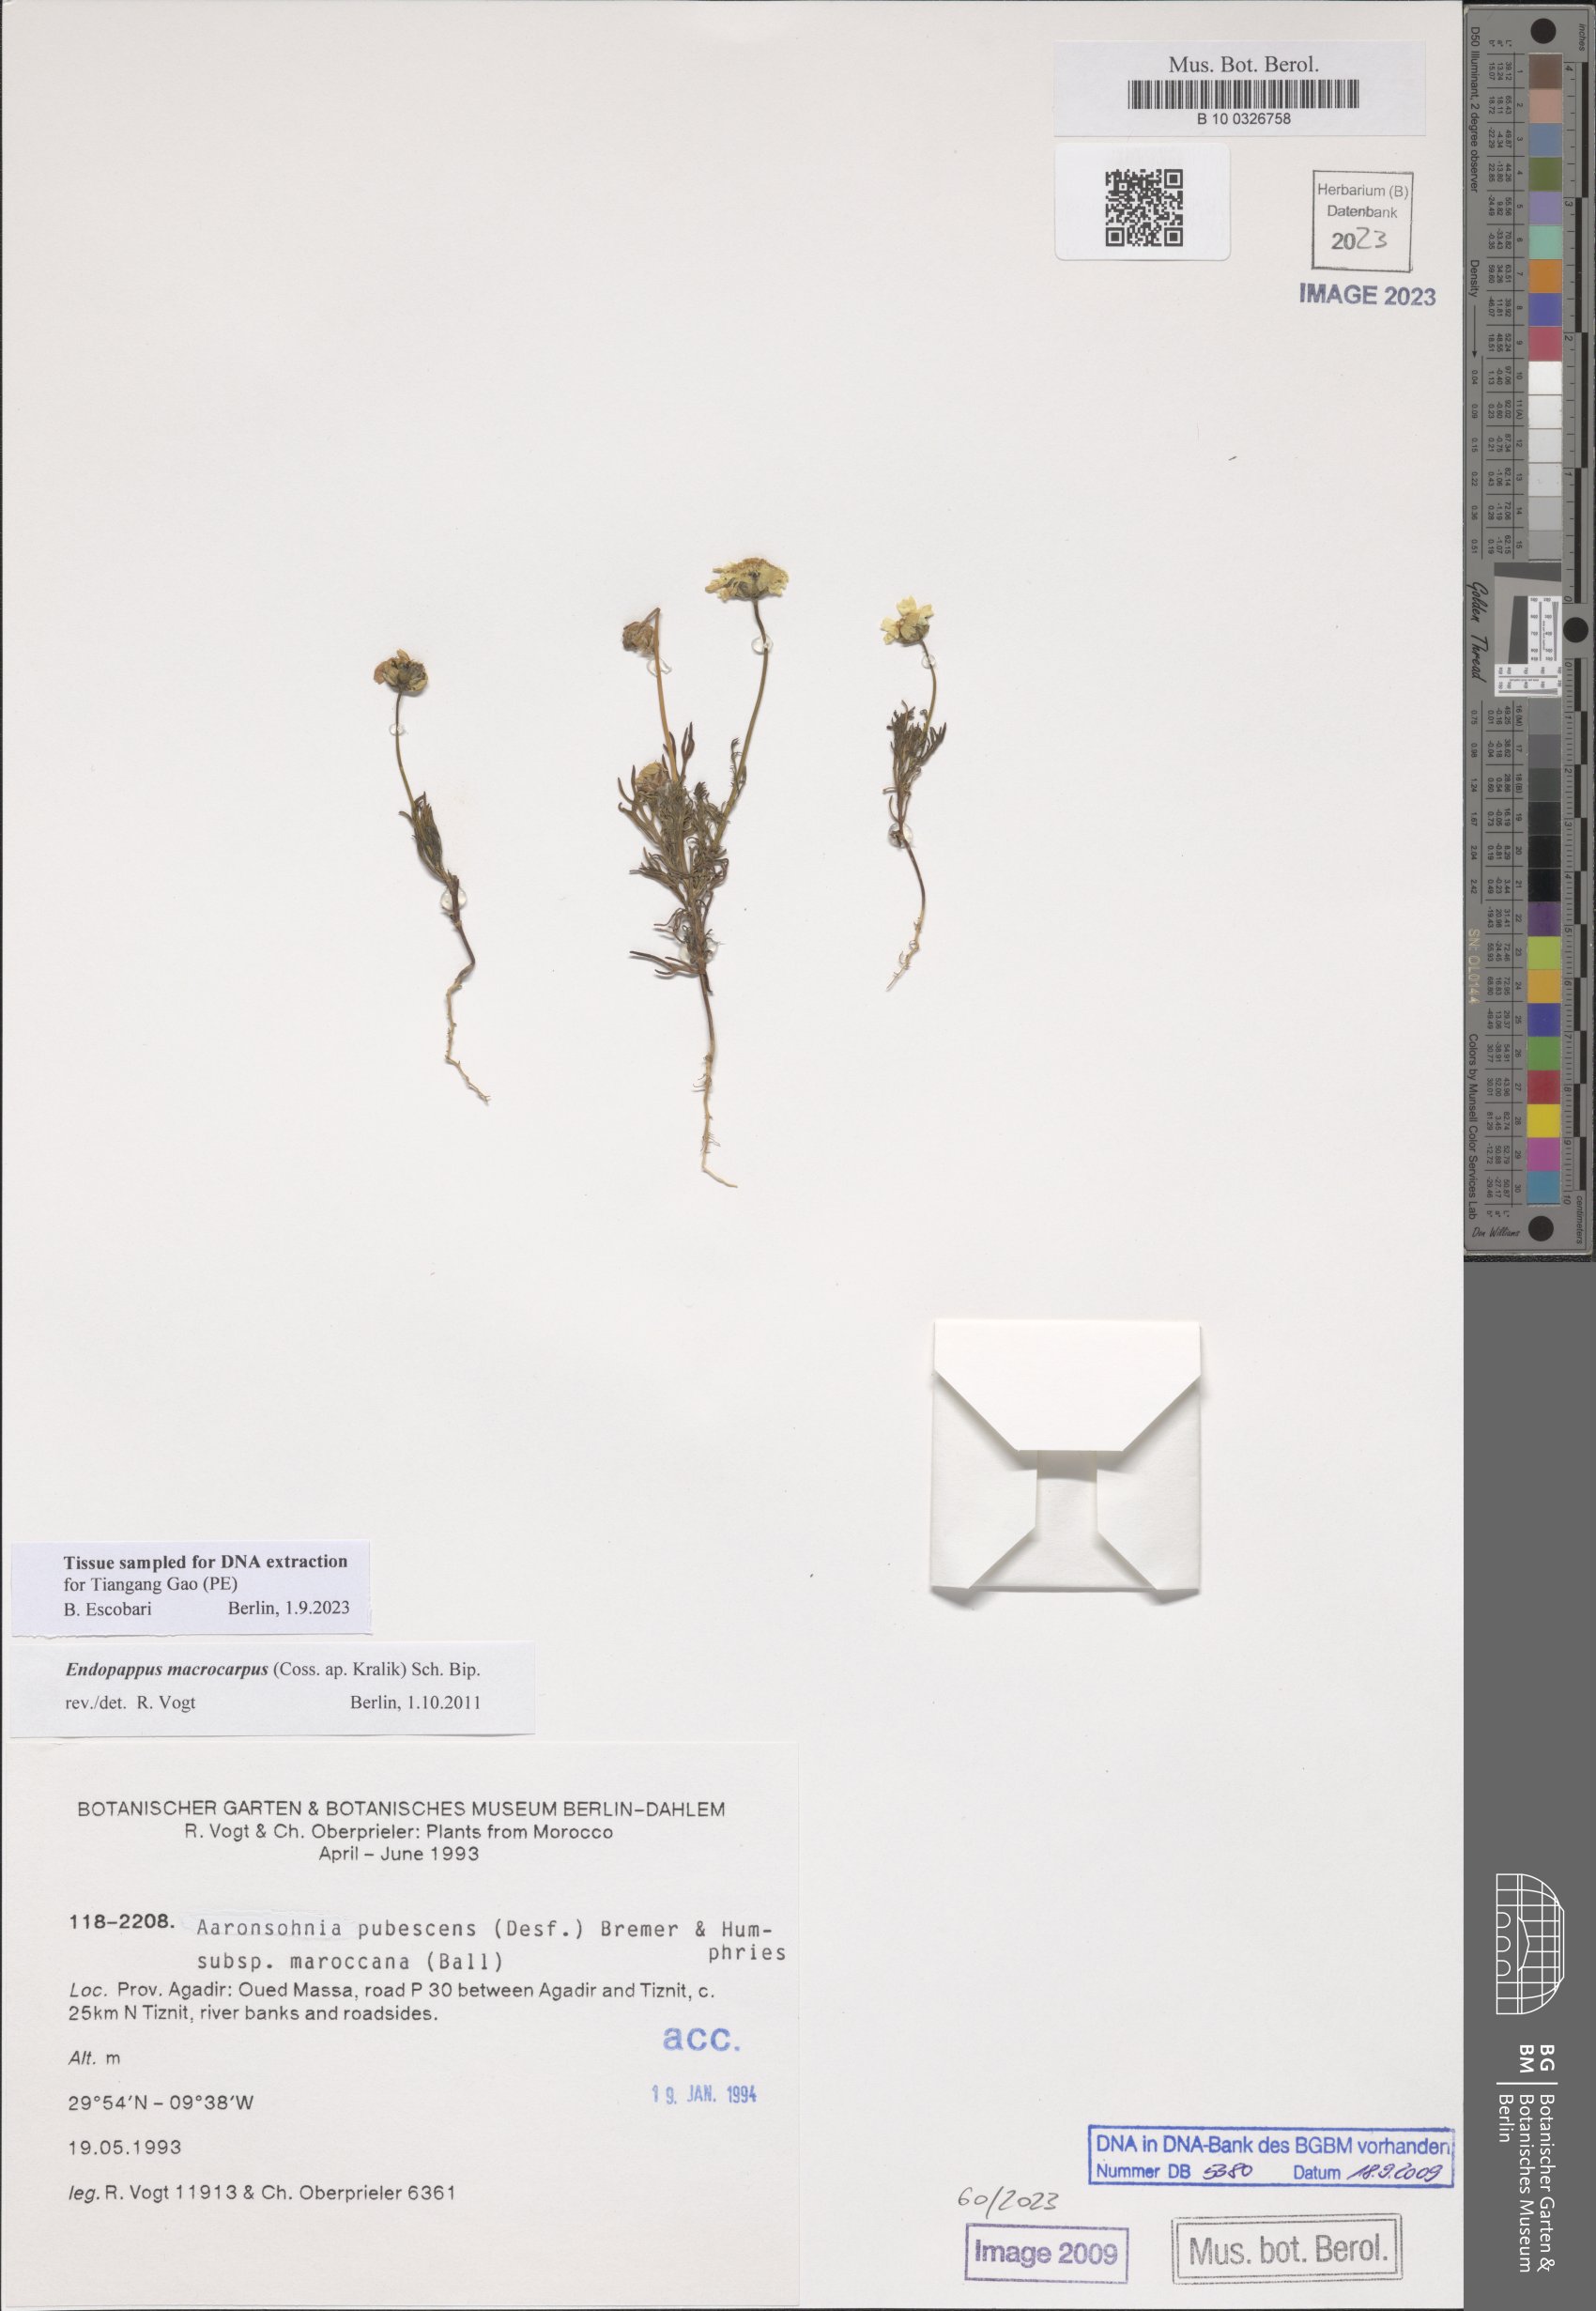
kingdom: Plantae
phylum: Tracheophyta
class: Magnoliopsida
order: Asterales
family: Asteraceae
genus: Endopappus
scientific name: Endopappus macrocarpus
